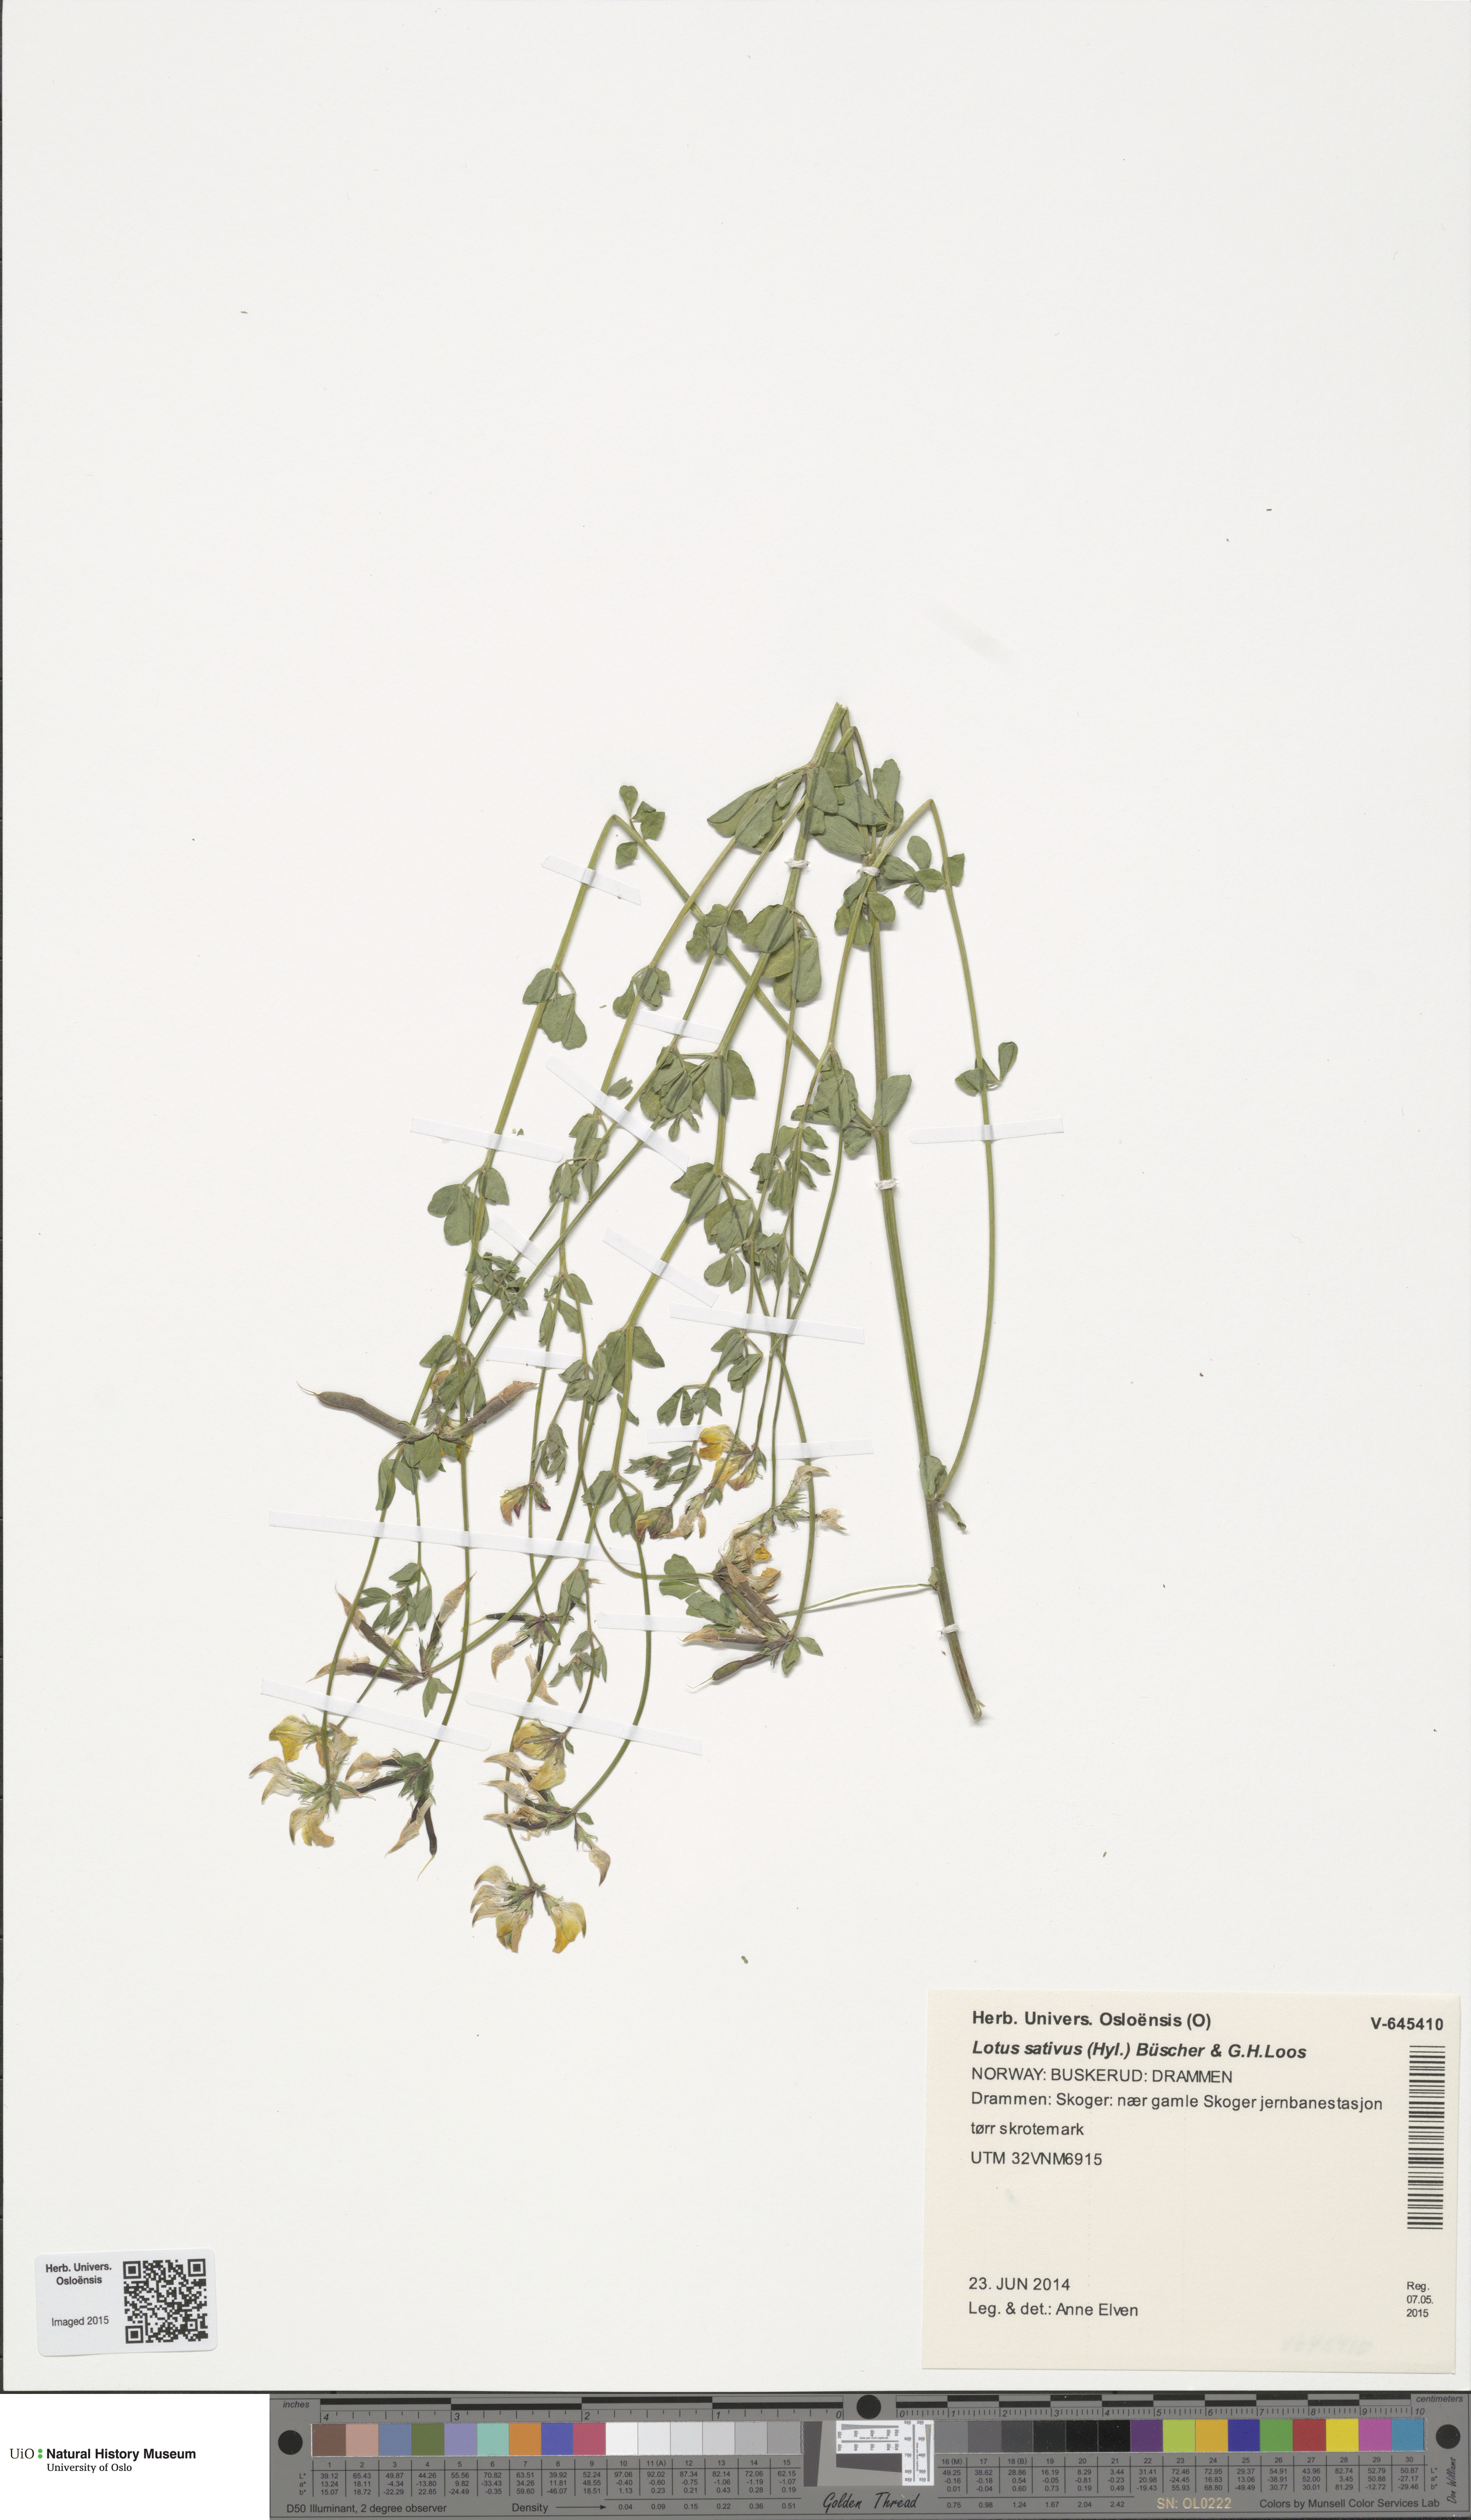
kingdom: Plantae
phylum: Tracheophyta
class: Magnoliopsida
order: Fabales
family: Fabaceae
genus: Lotus
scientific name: Lotus corniculatus
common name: Common bird's-foot-trefoil
